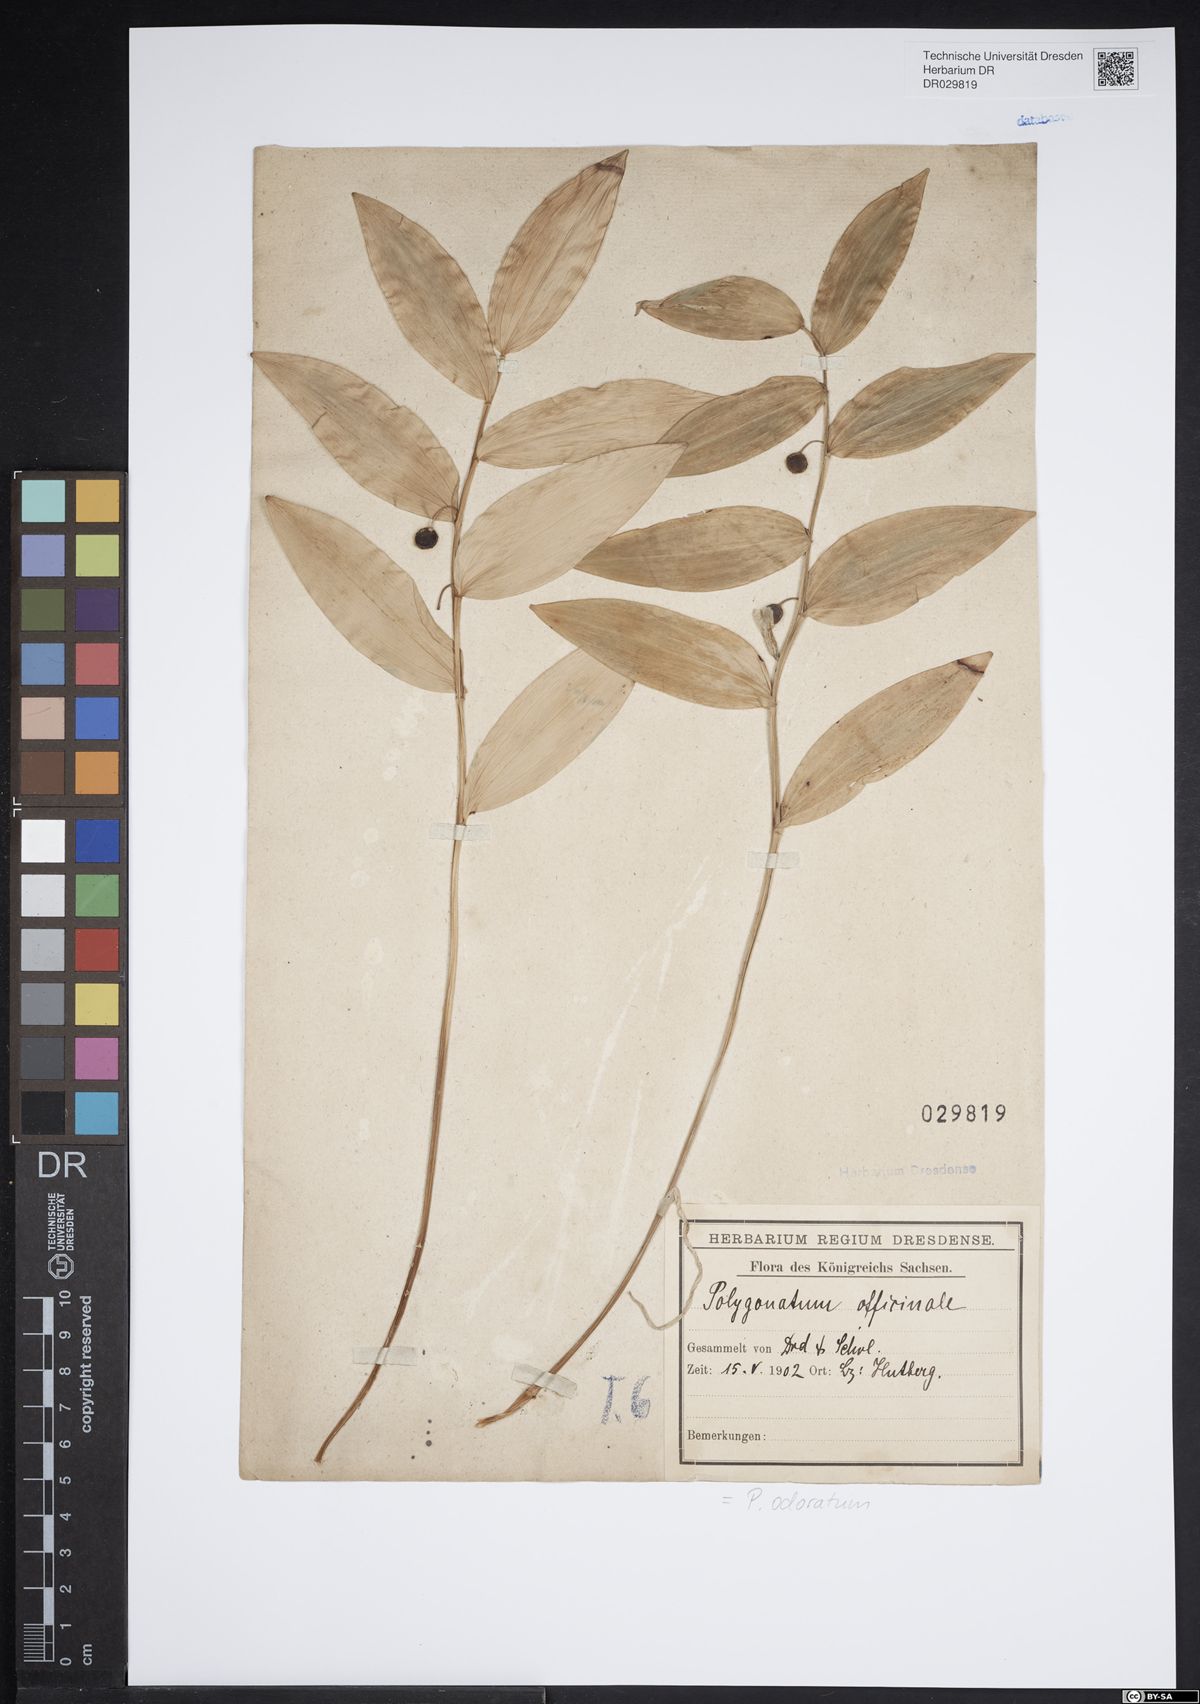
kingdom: Plantae
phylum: Tracheophyta
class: Liliopsida
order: Asparagales
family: Asparagaceae
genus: Polygonatum
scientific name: Polygonatum odoratum
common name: Angular solomon's-seal
